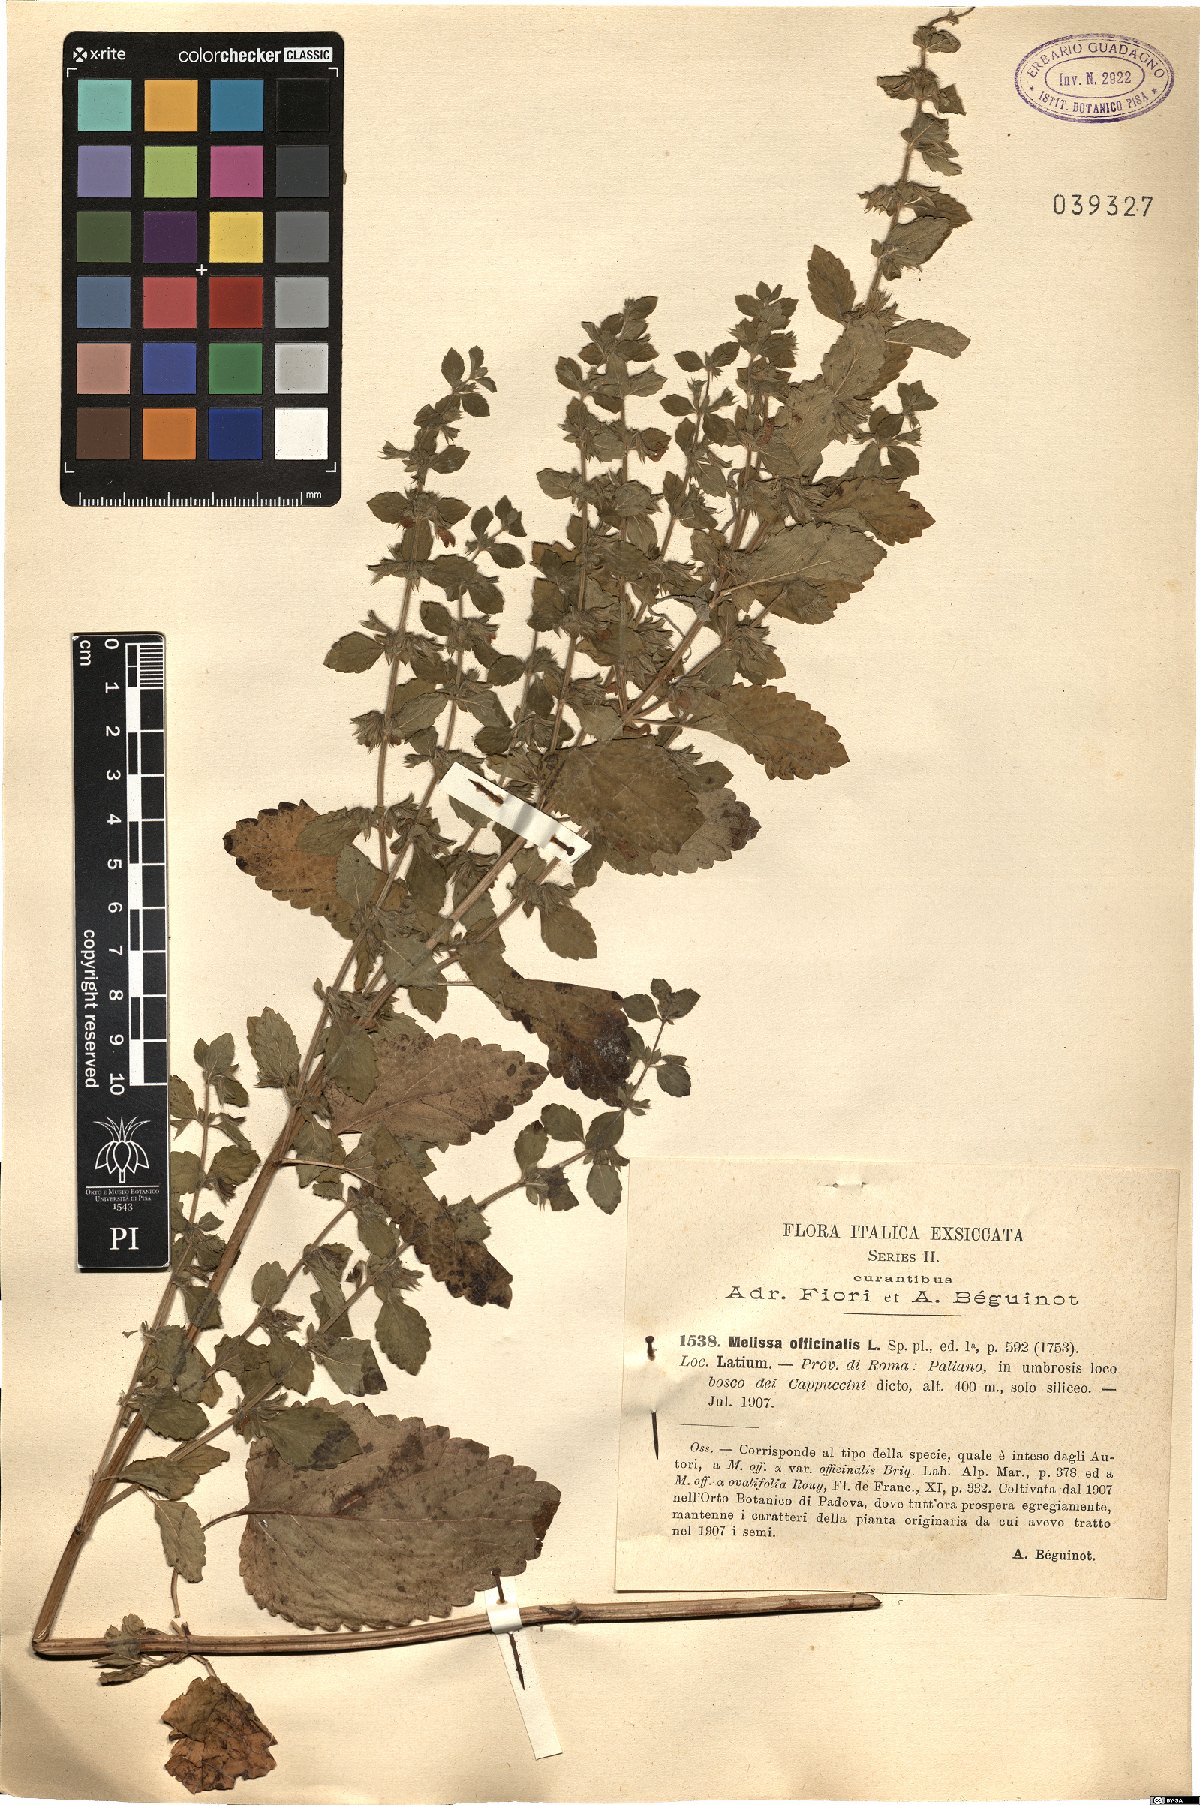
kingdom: Plantae
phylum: Tracheophyta
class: Magnoliopsida
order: Lamiales
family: Lamiaceae
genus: Melissa
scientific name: Melissa officinalis
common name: Balm
